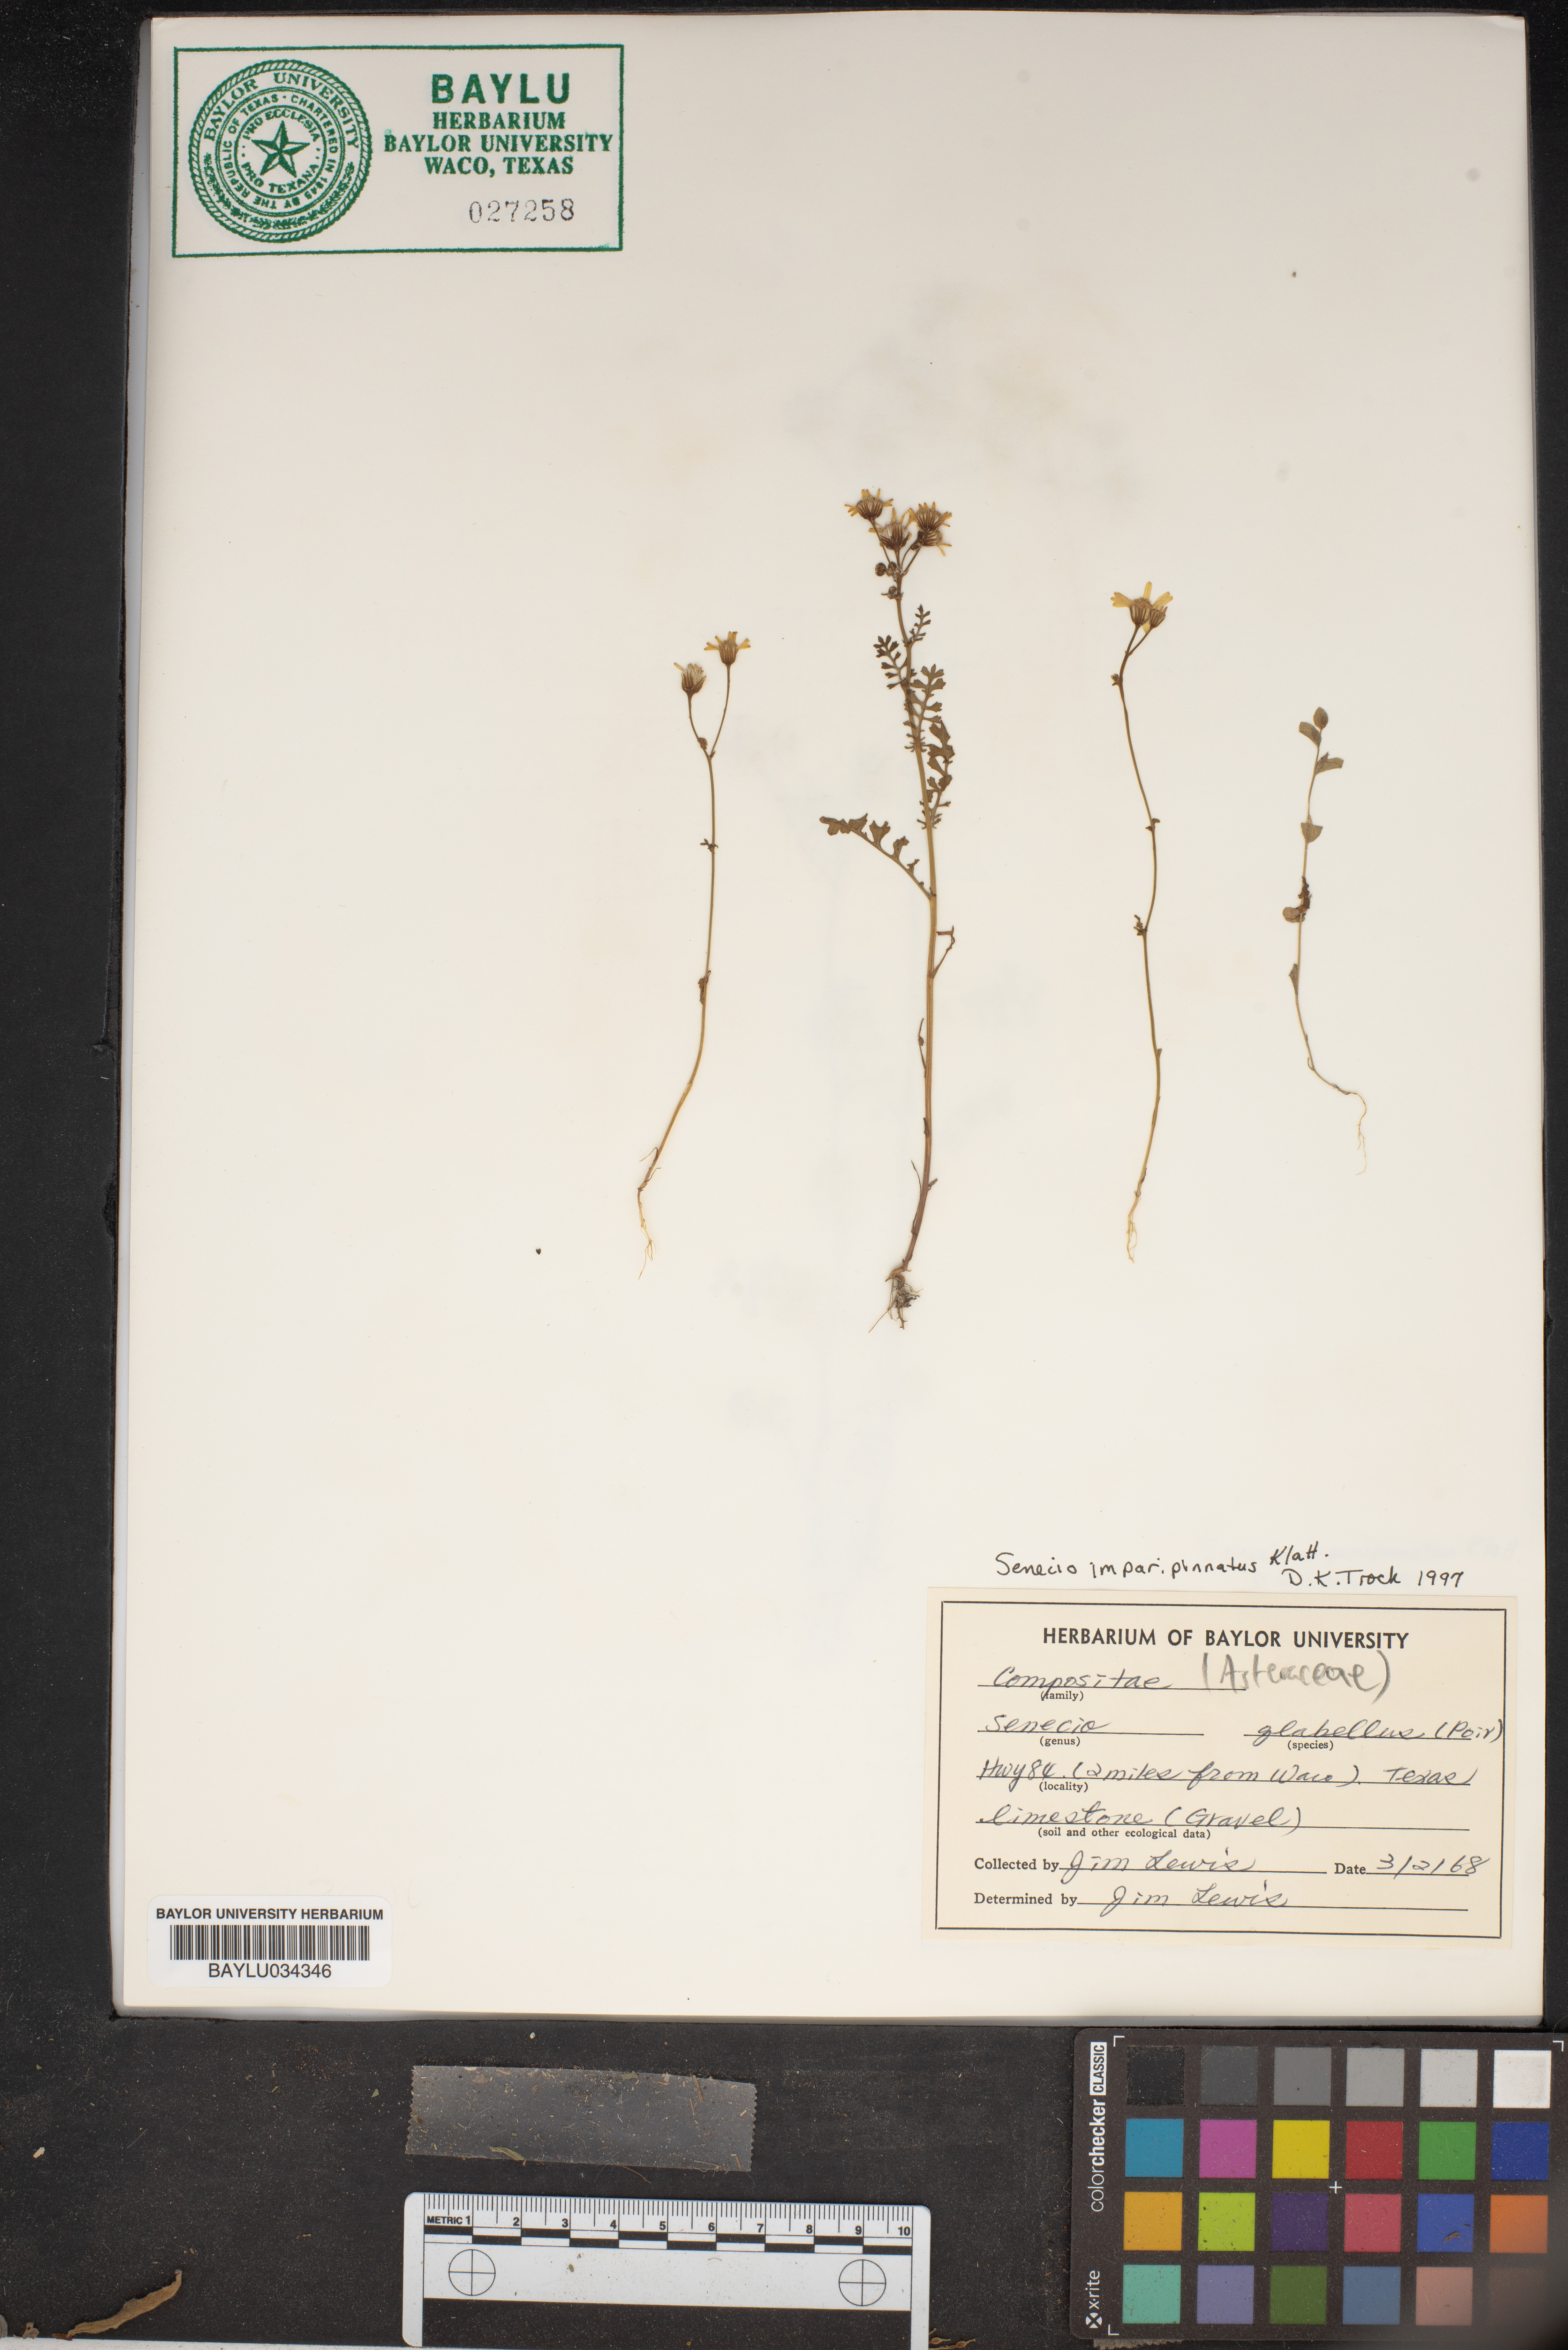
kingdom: Plantae
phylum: Tracheophyta
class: Magnoliopsida
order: Asterales
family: Asteraceae
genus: Tephroseris
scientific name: Tephroseris praticola
